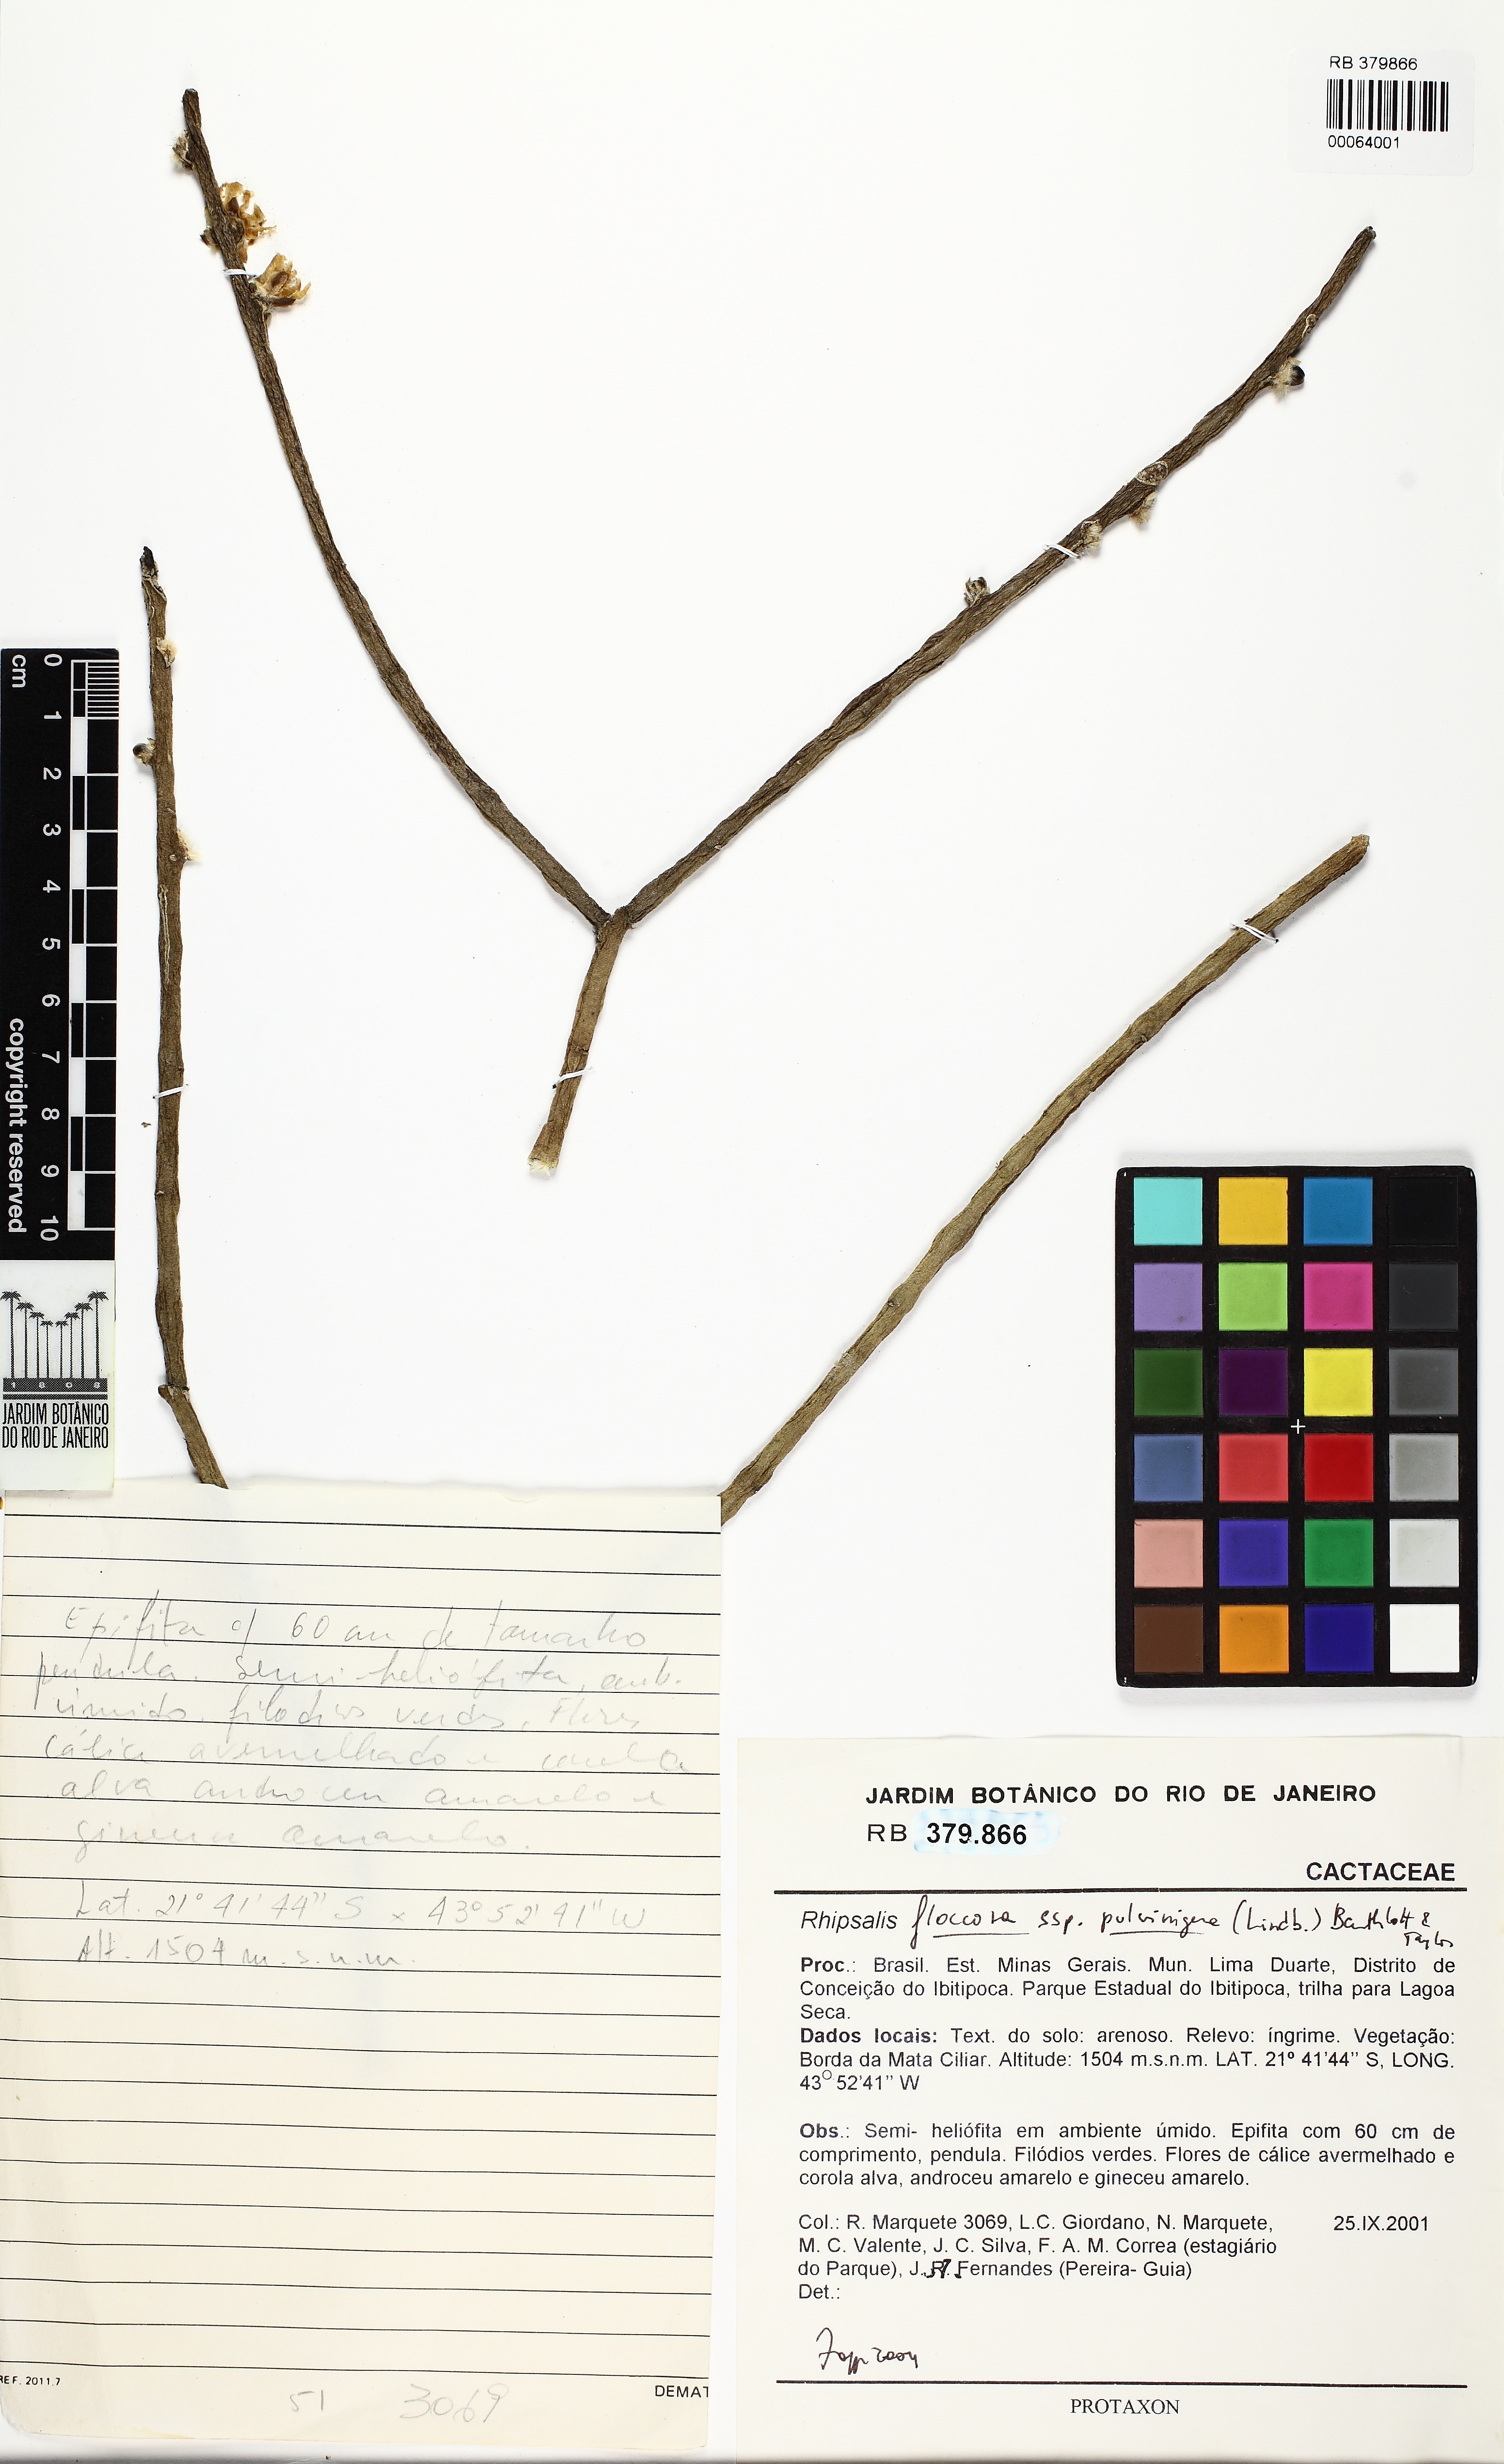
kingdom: Plantae
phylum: Tracheophyta
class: Magnoliopsida
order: Caryophyllales
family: Cactaceae
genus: Rhipsalis
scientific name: Rhipsalis floccosa
